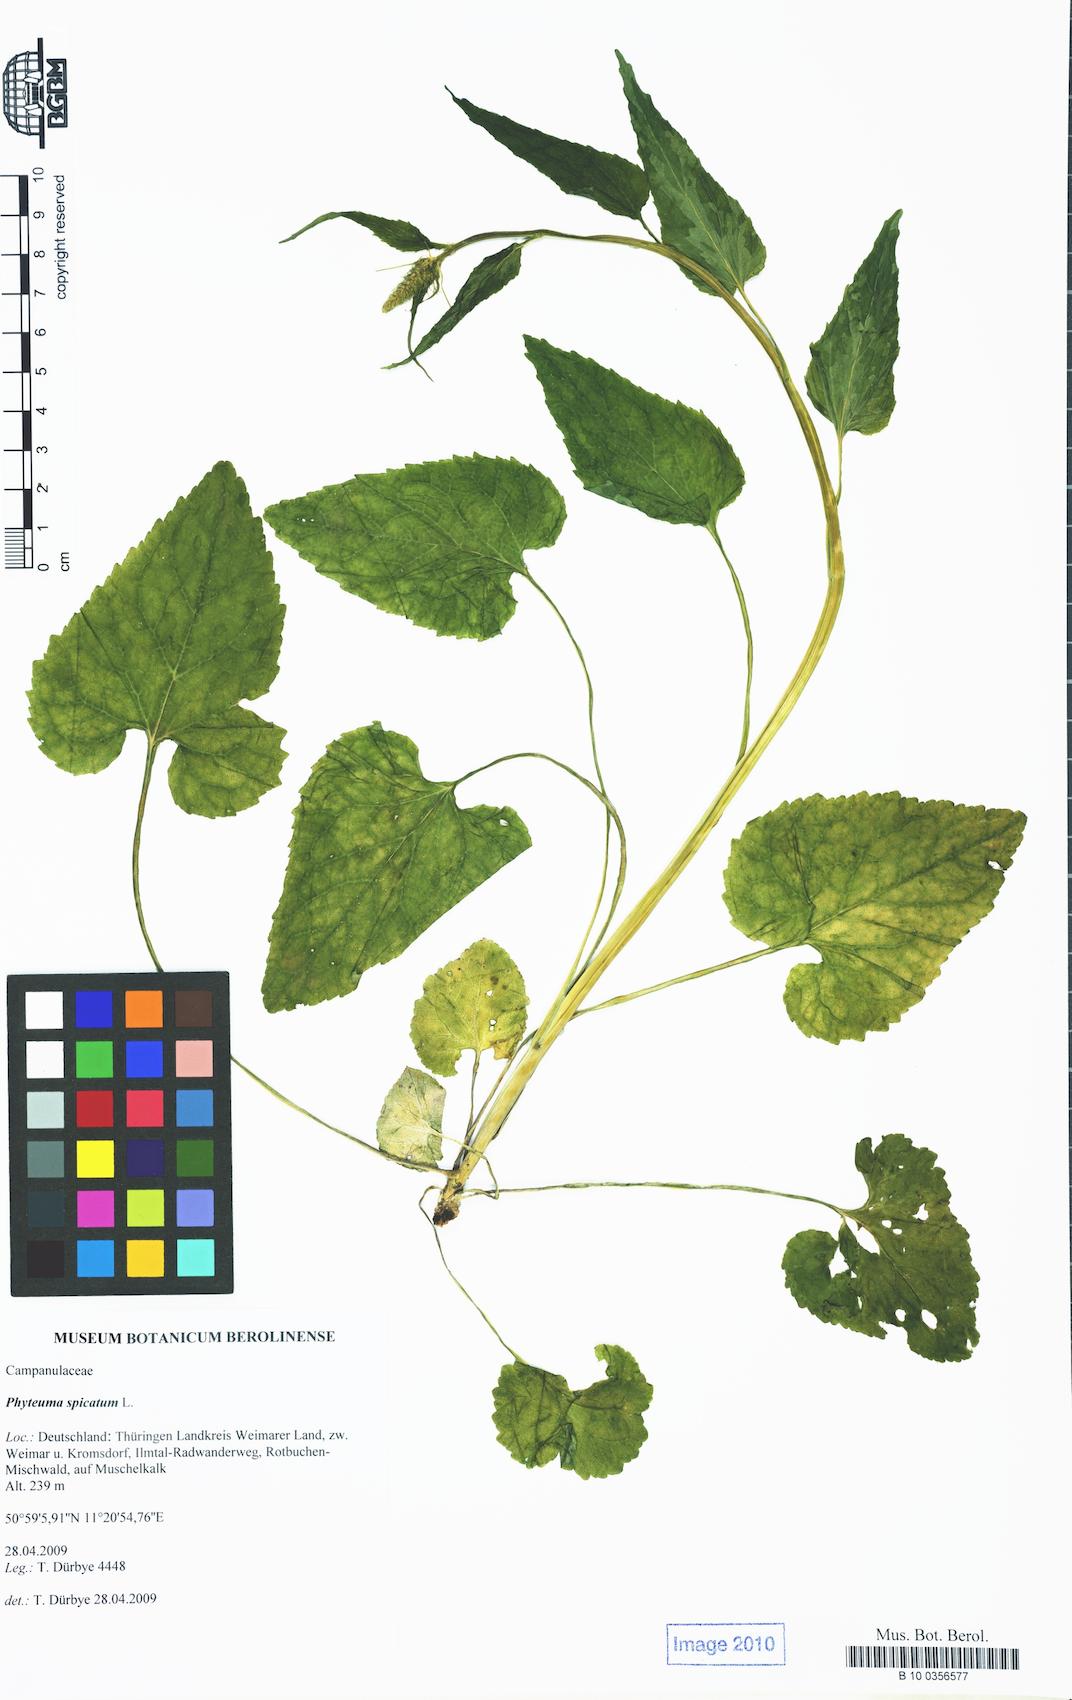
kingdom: Plantae
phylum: Tracheophyta
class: Magnoliopsida
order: Asterales
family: Campanulaceae
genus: Phyteuma
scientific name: Phyteuma spicatum
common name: Spiked rampion
